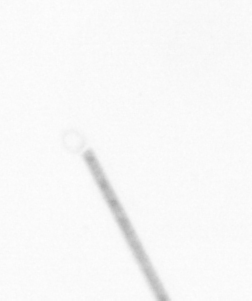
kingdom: Chromista
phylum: Ochrophyta
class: Bacillariophyceae
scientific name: Bacillariophyceae
